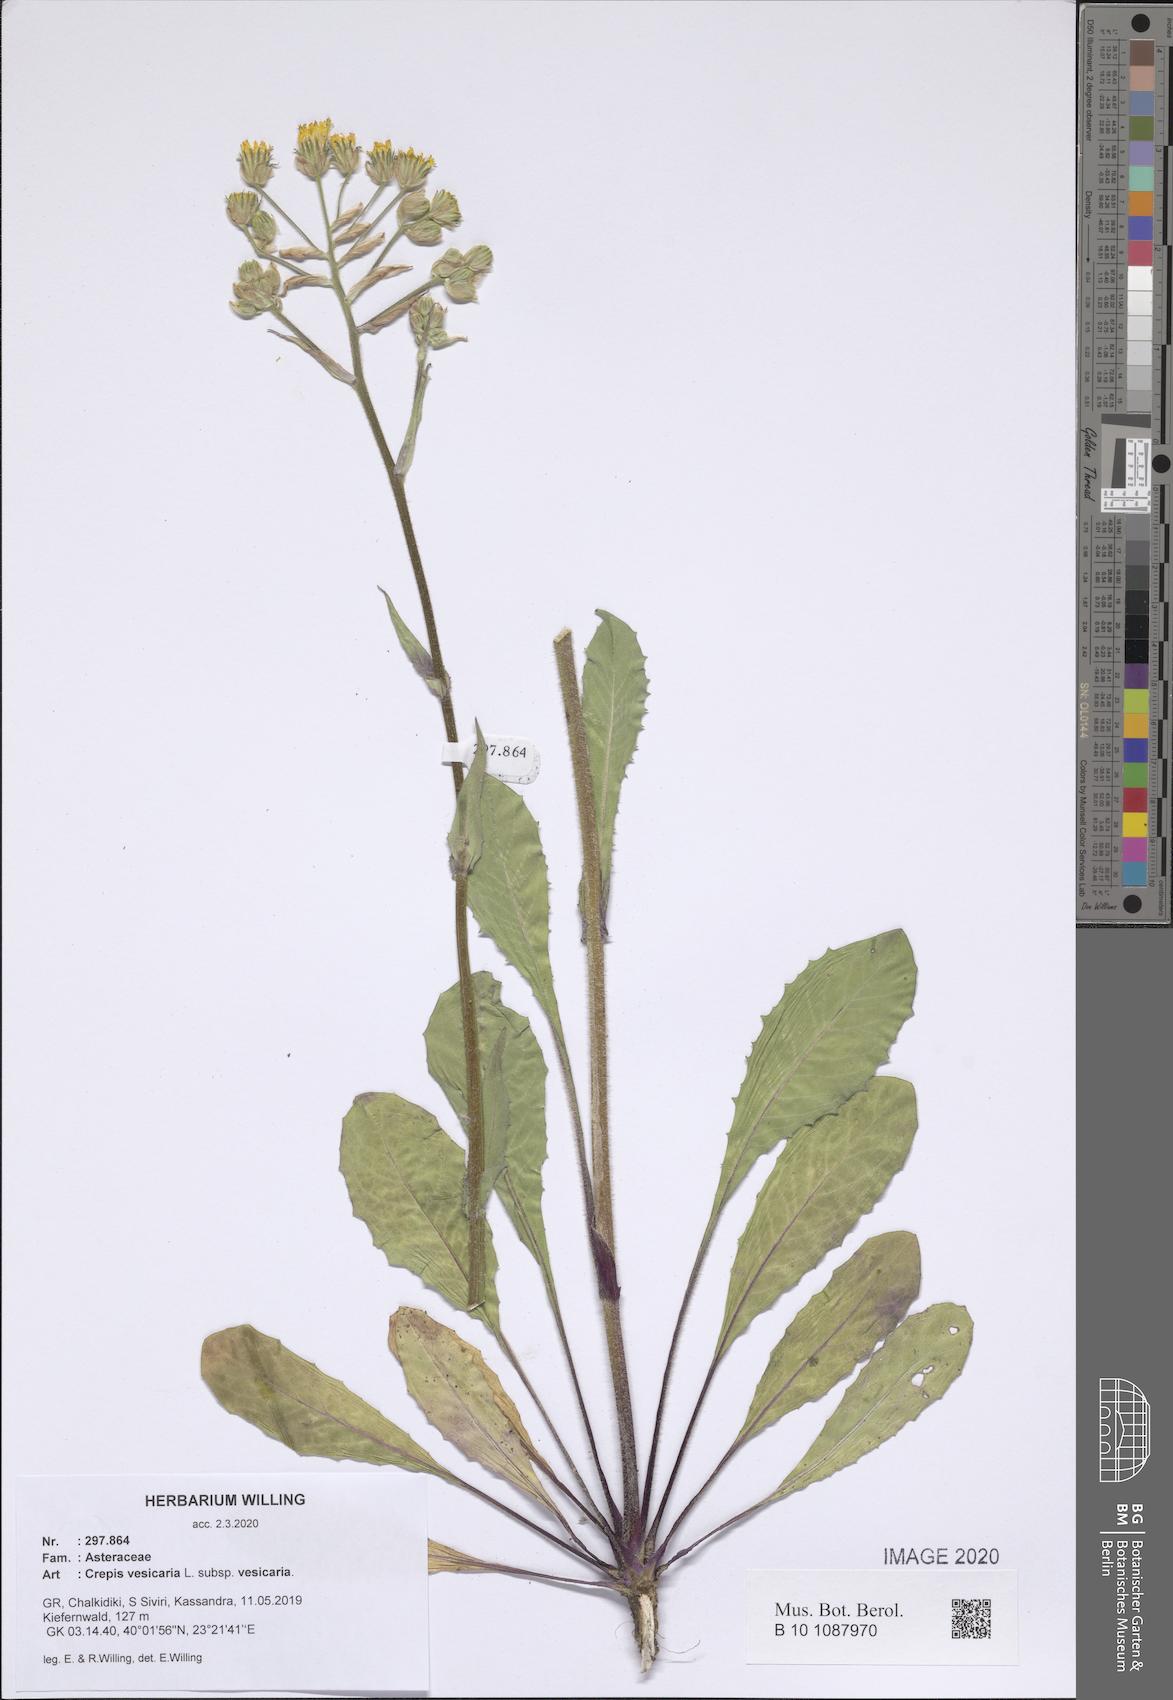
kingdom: Plantae
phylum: Tracheophyta
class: Magnoliopsida
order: Asterales
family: Asteraceae
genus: Crepis
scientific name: Crepis vesicaria
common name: Beaked hawksbeard
